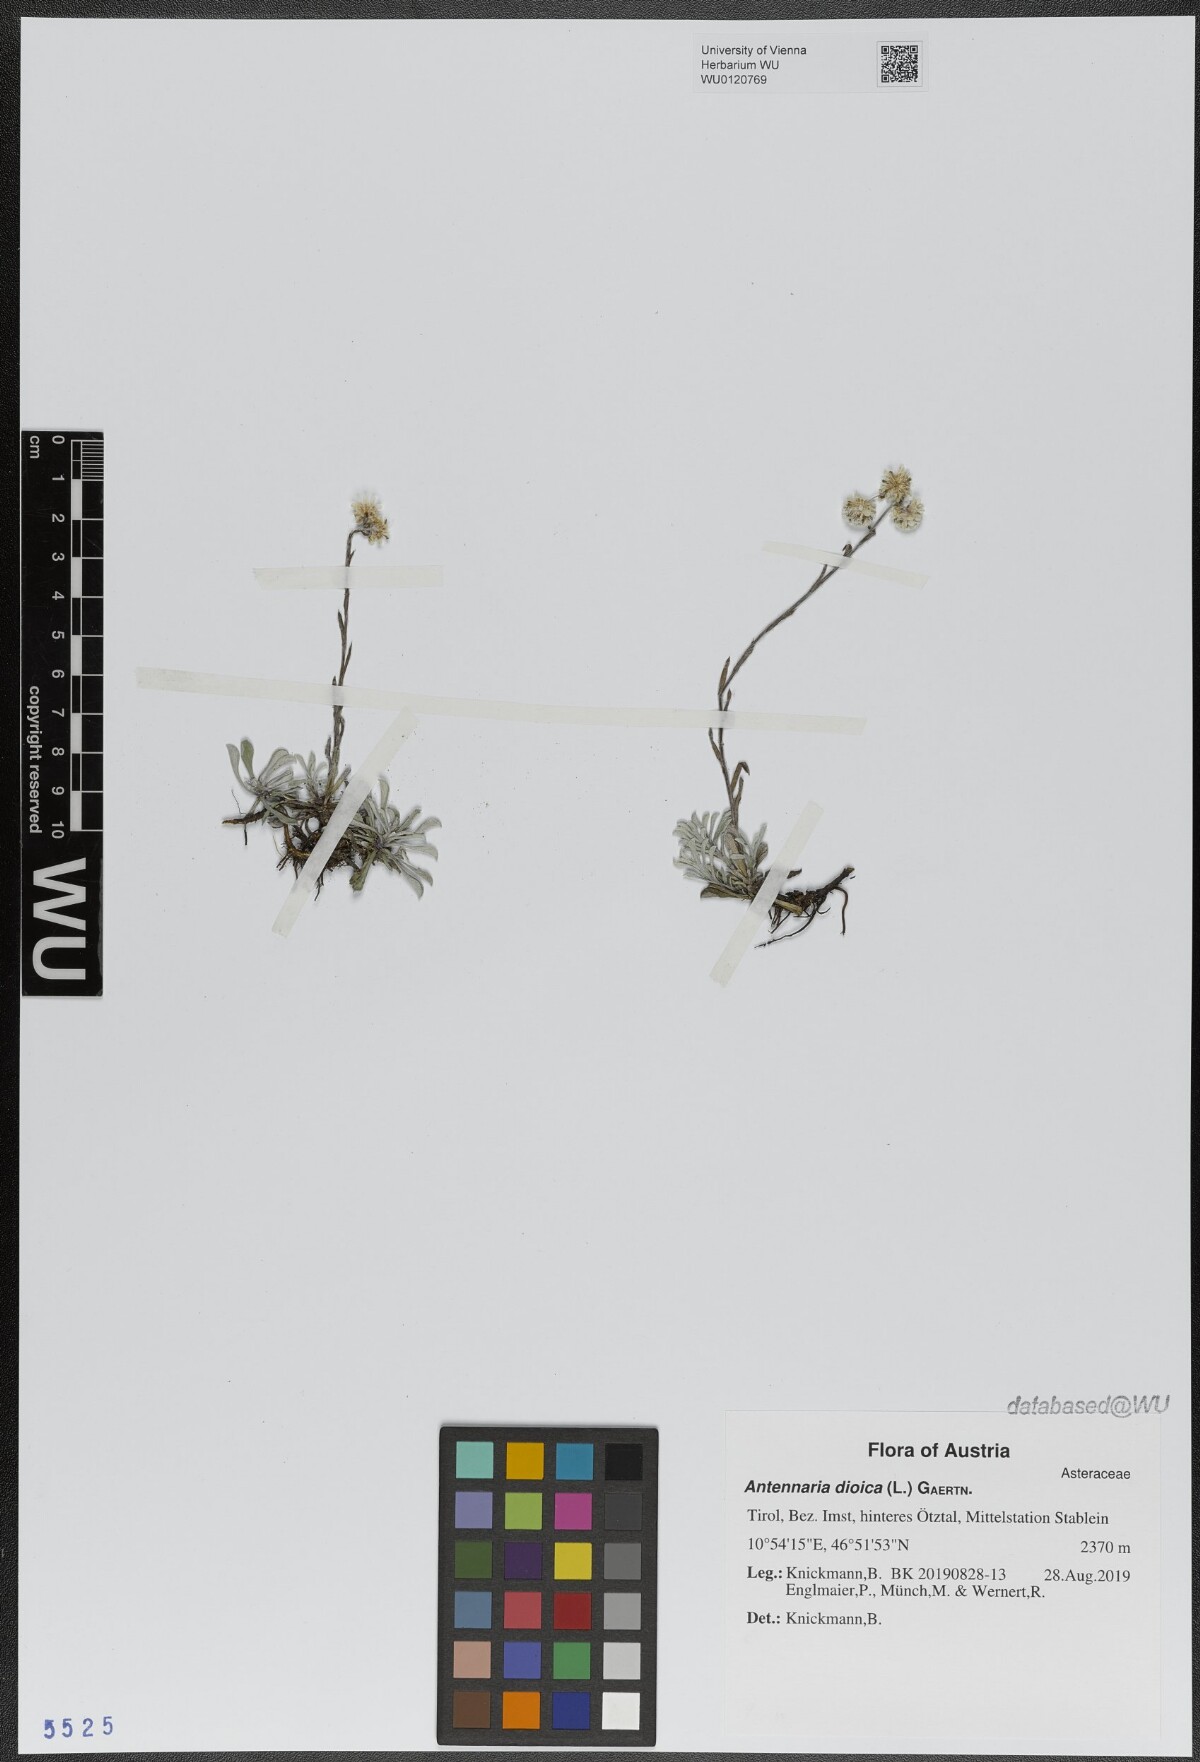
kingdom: Plantae
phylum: Tracheophyta
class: Magnoliopsida
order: Asterales
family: Asteraceae
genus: Antennaria
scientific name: Antennaria dioica
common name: Mountain everlasting
